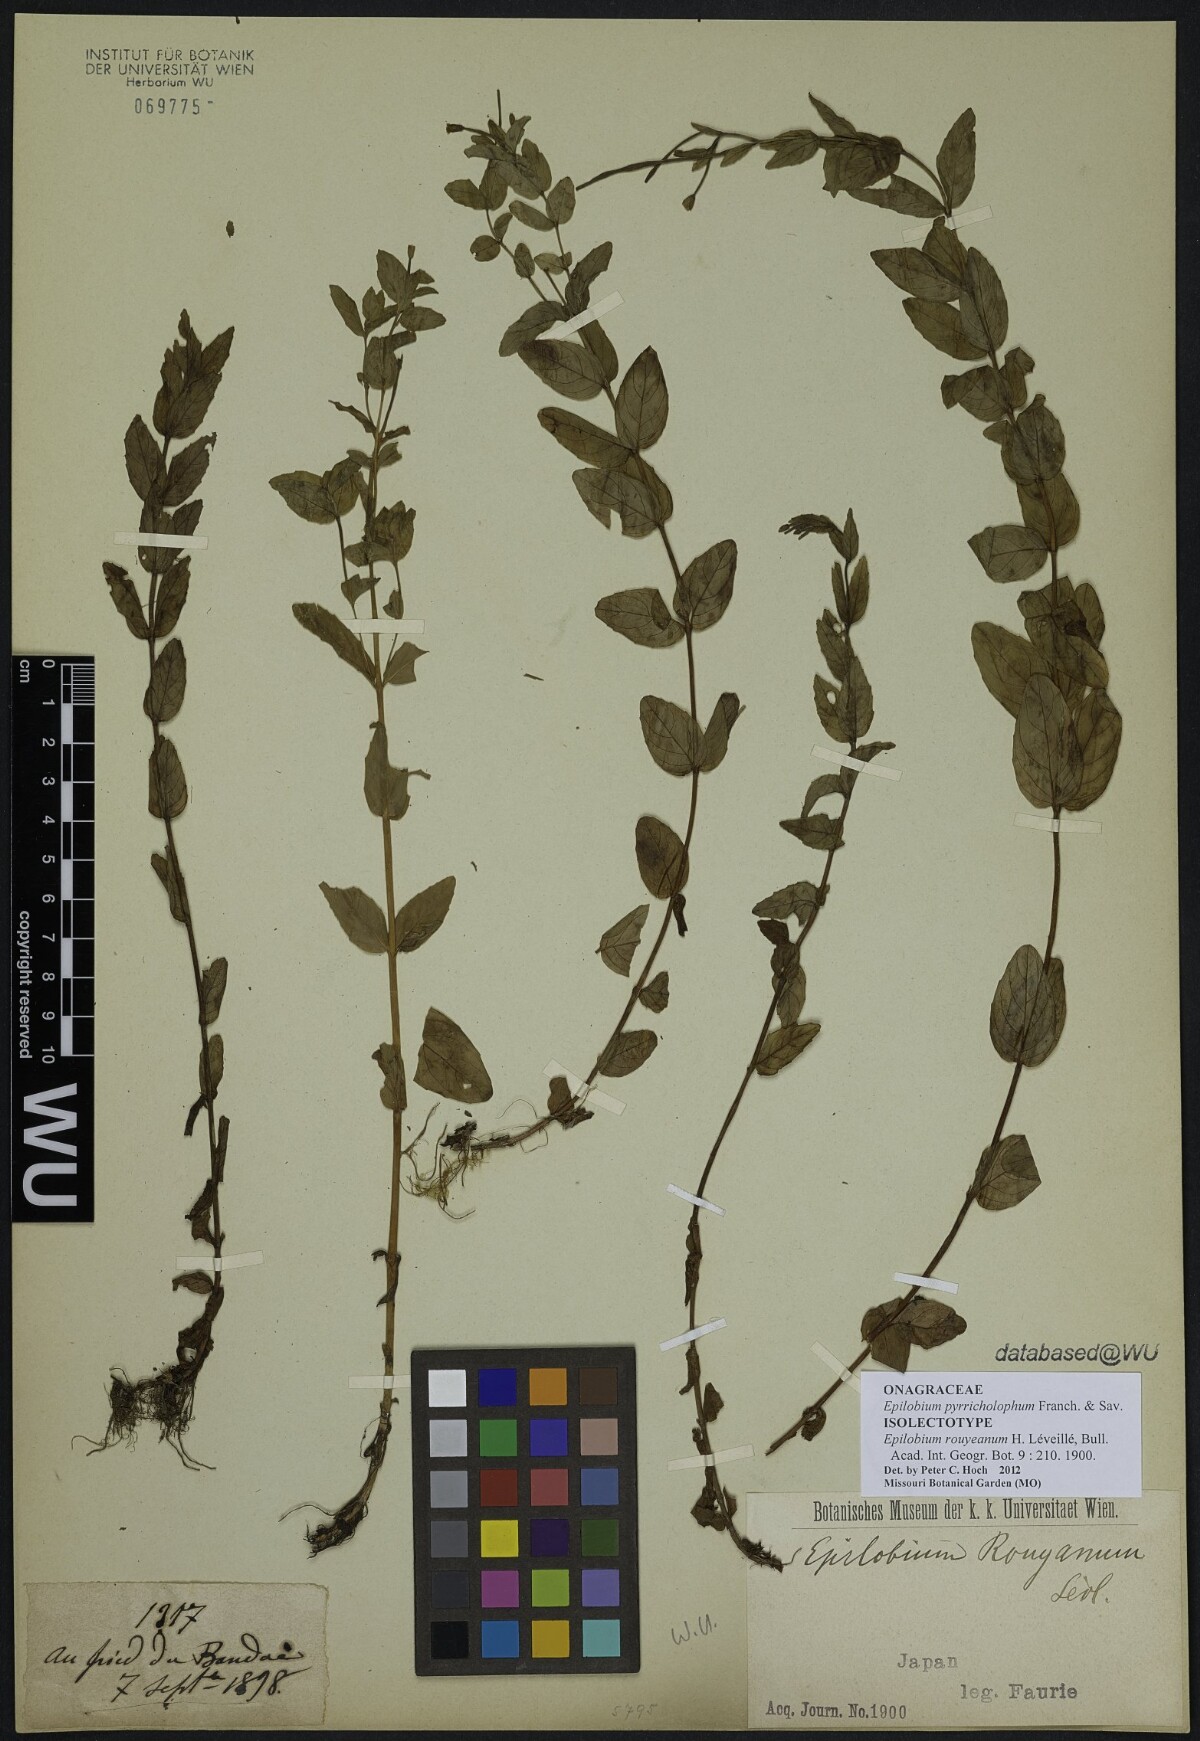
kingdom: Plantae
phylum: Tracheophyta
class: Magnoliopsida
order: Myrtales
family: Onagraceae
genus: Epilobium
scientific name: Epilobium pyrricholophum
